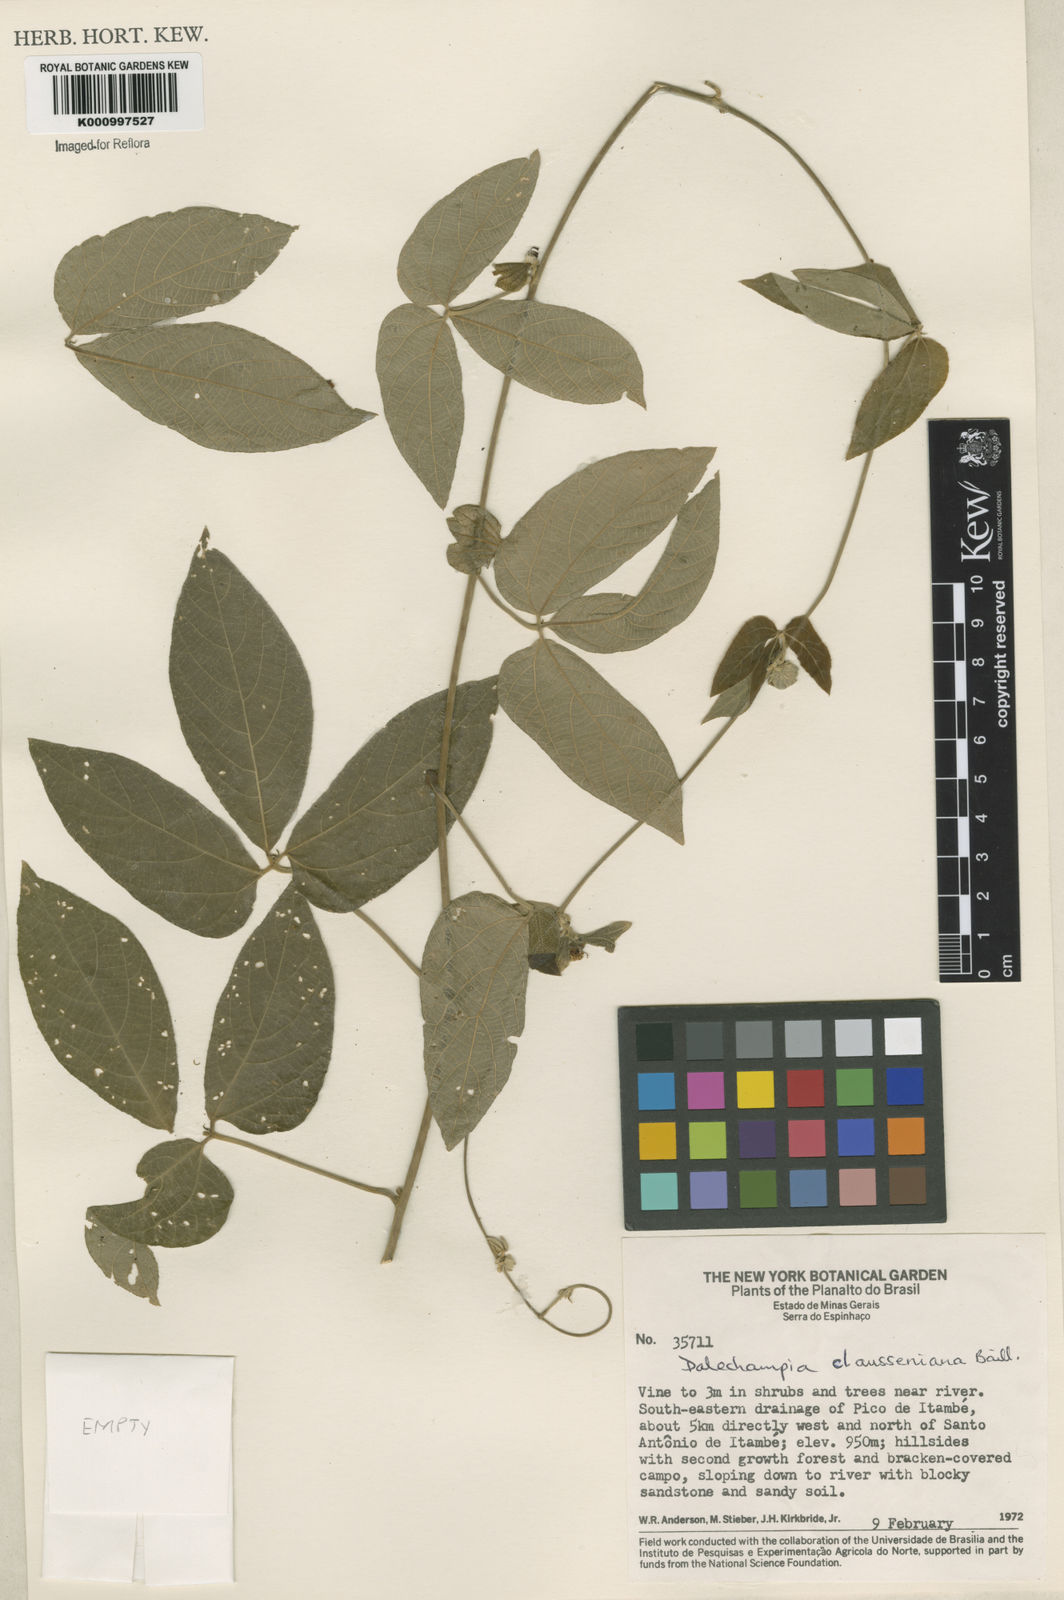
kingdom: Plantae
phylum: Tracheophyta
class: Magnoliopsida
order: Malpighiales
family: Euphorbiaceae
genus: Dalechampia
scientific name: Dalechampia clausseniana
